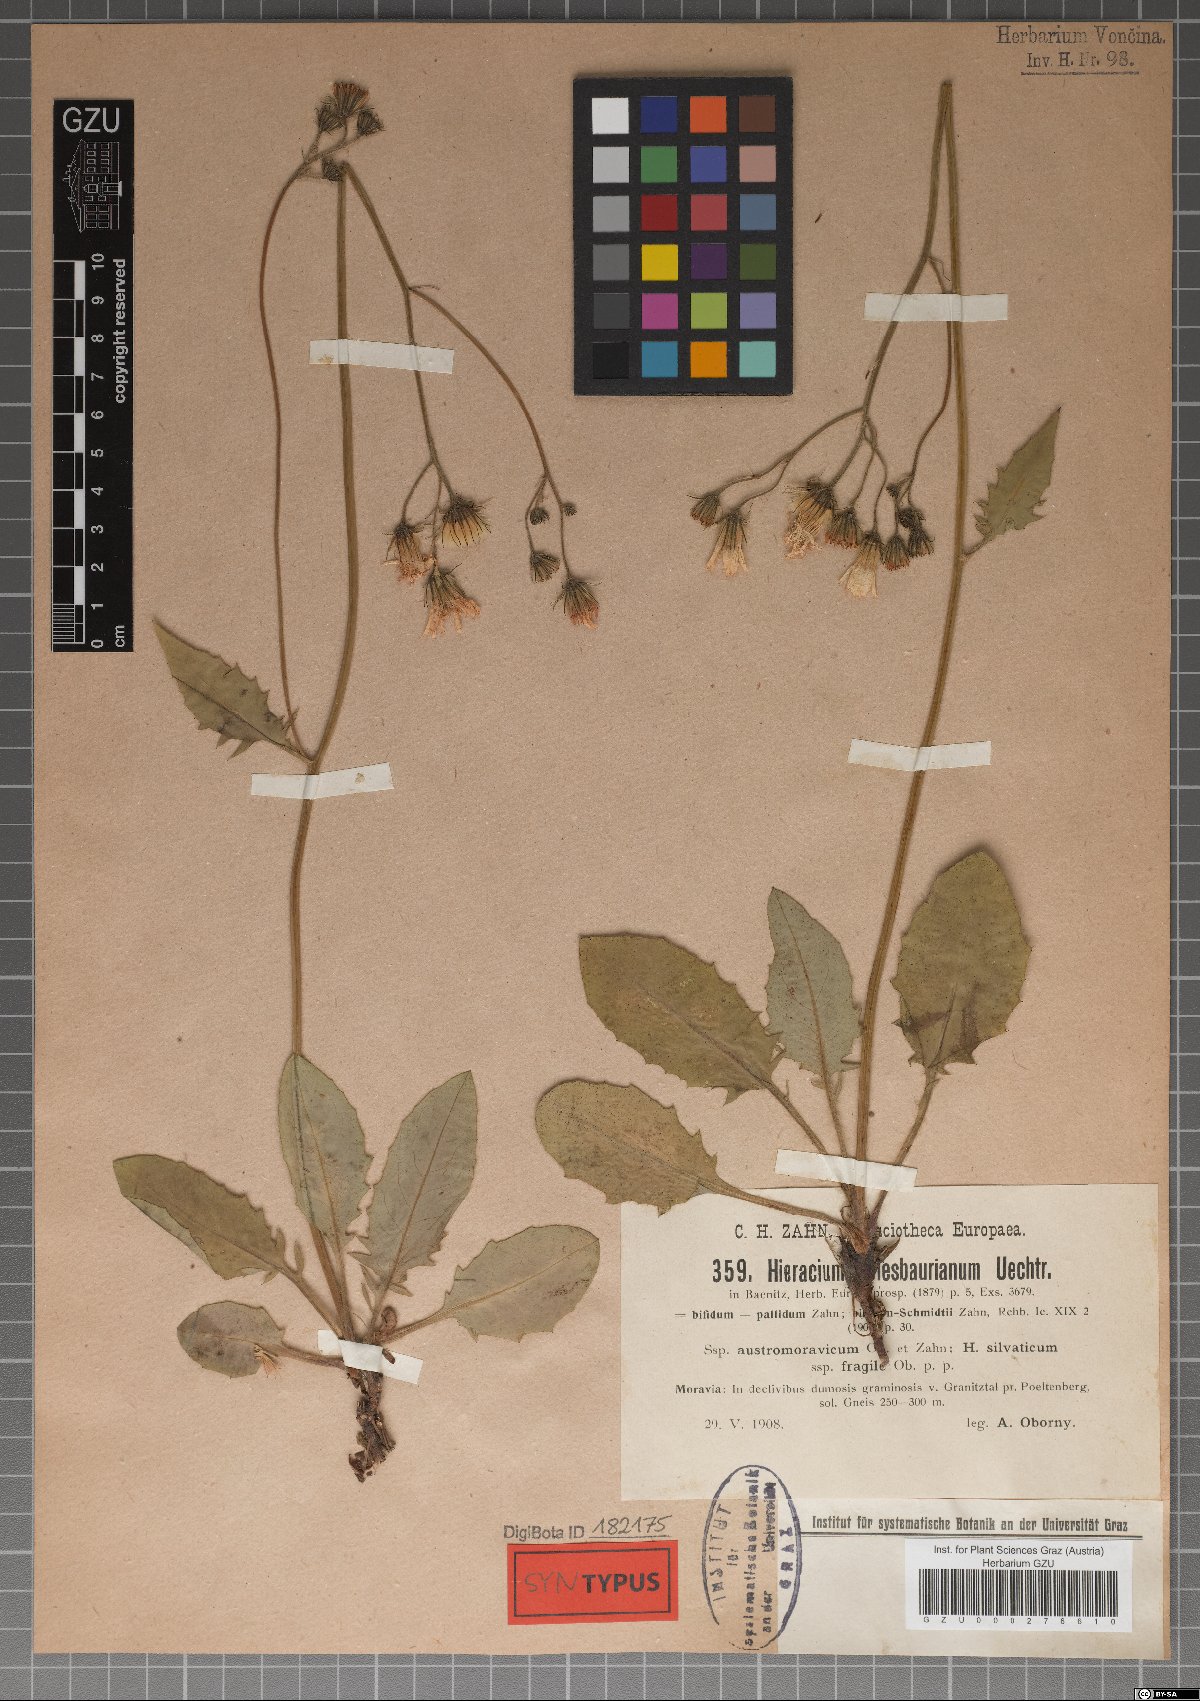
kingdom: Plantae
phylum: Tracheophyta
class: Magnoliopsida
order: Asterales
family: Asteraceae
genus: Hieracium
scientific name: Hieracium hypochoeroides
